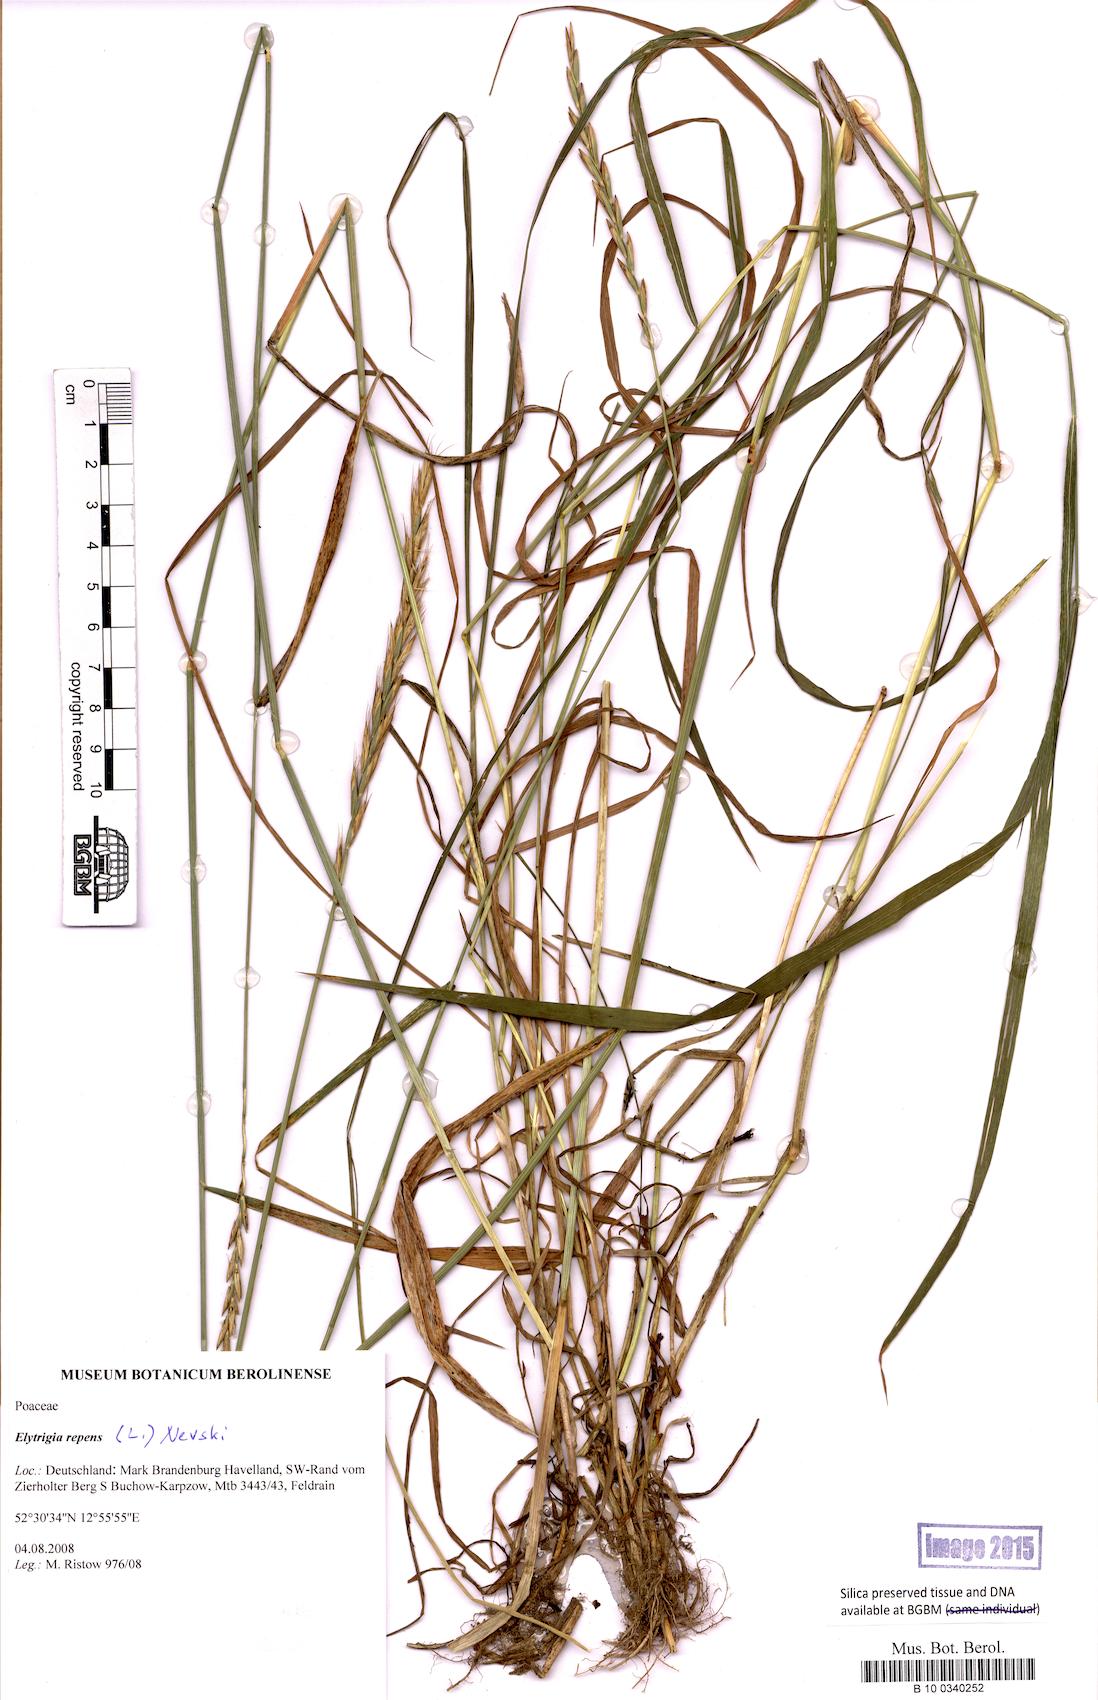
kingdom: Plantae
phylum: Tracheophyta
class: Liliopsida
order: Poales
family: Poaceae
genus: Elymus
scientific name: Elymus repens
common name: Quackgrass
